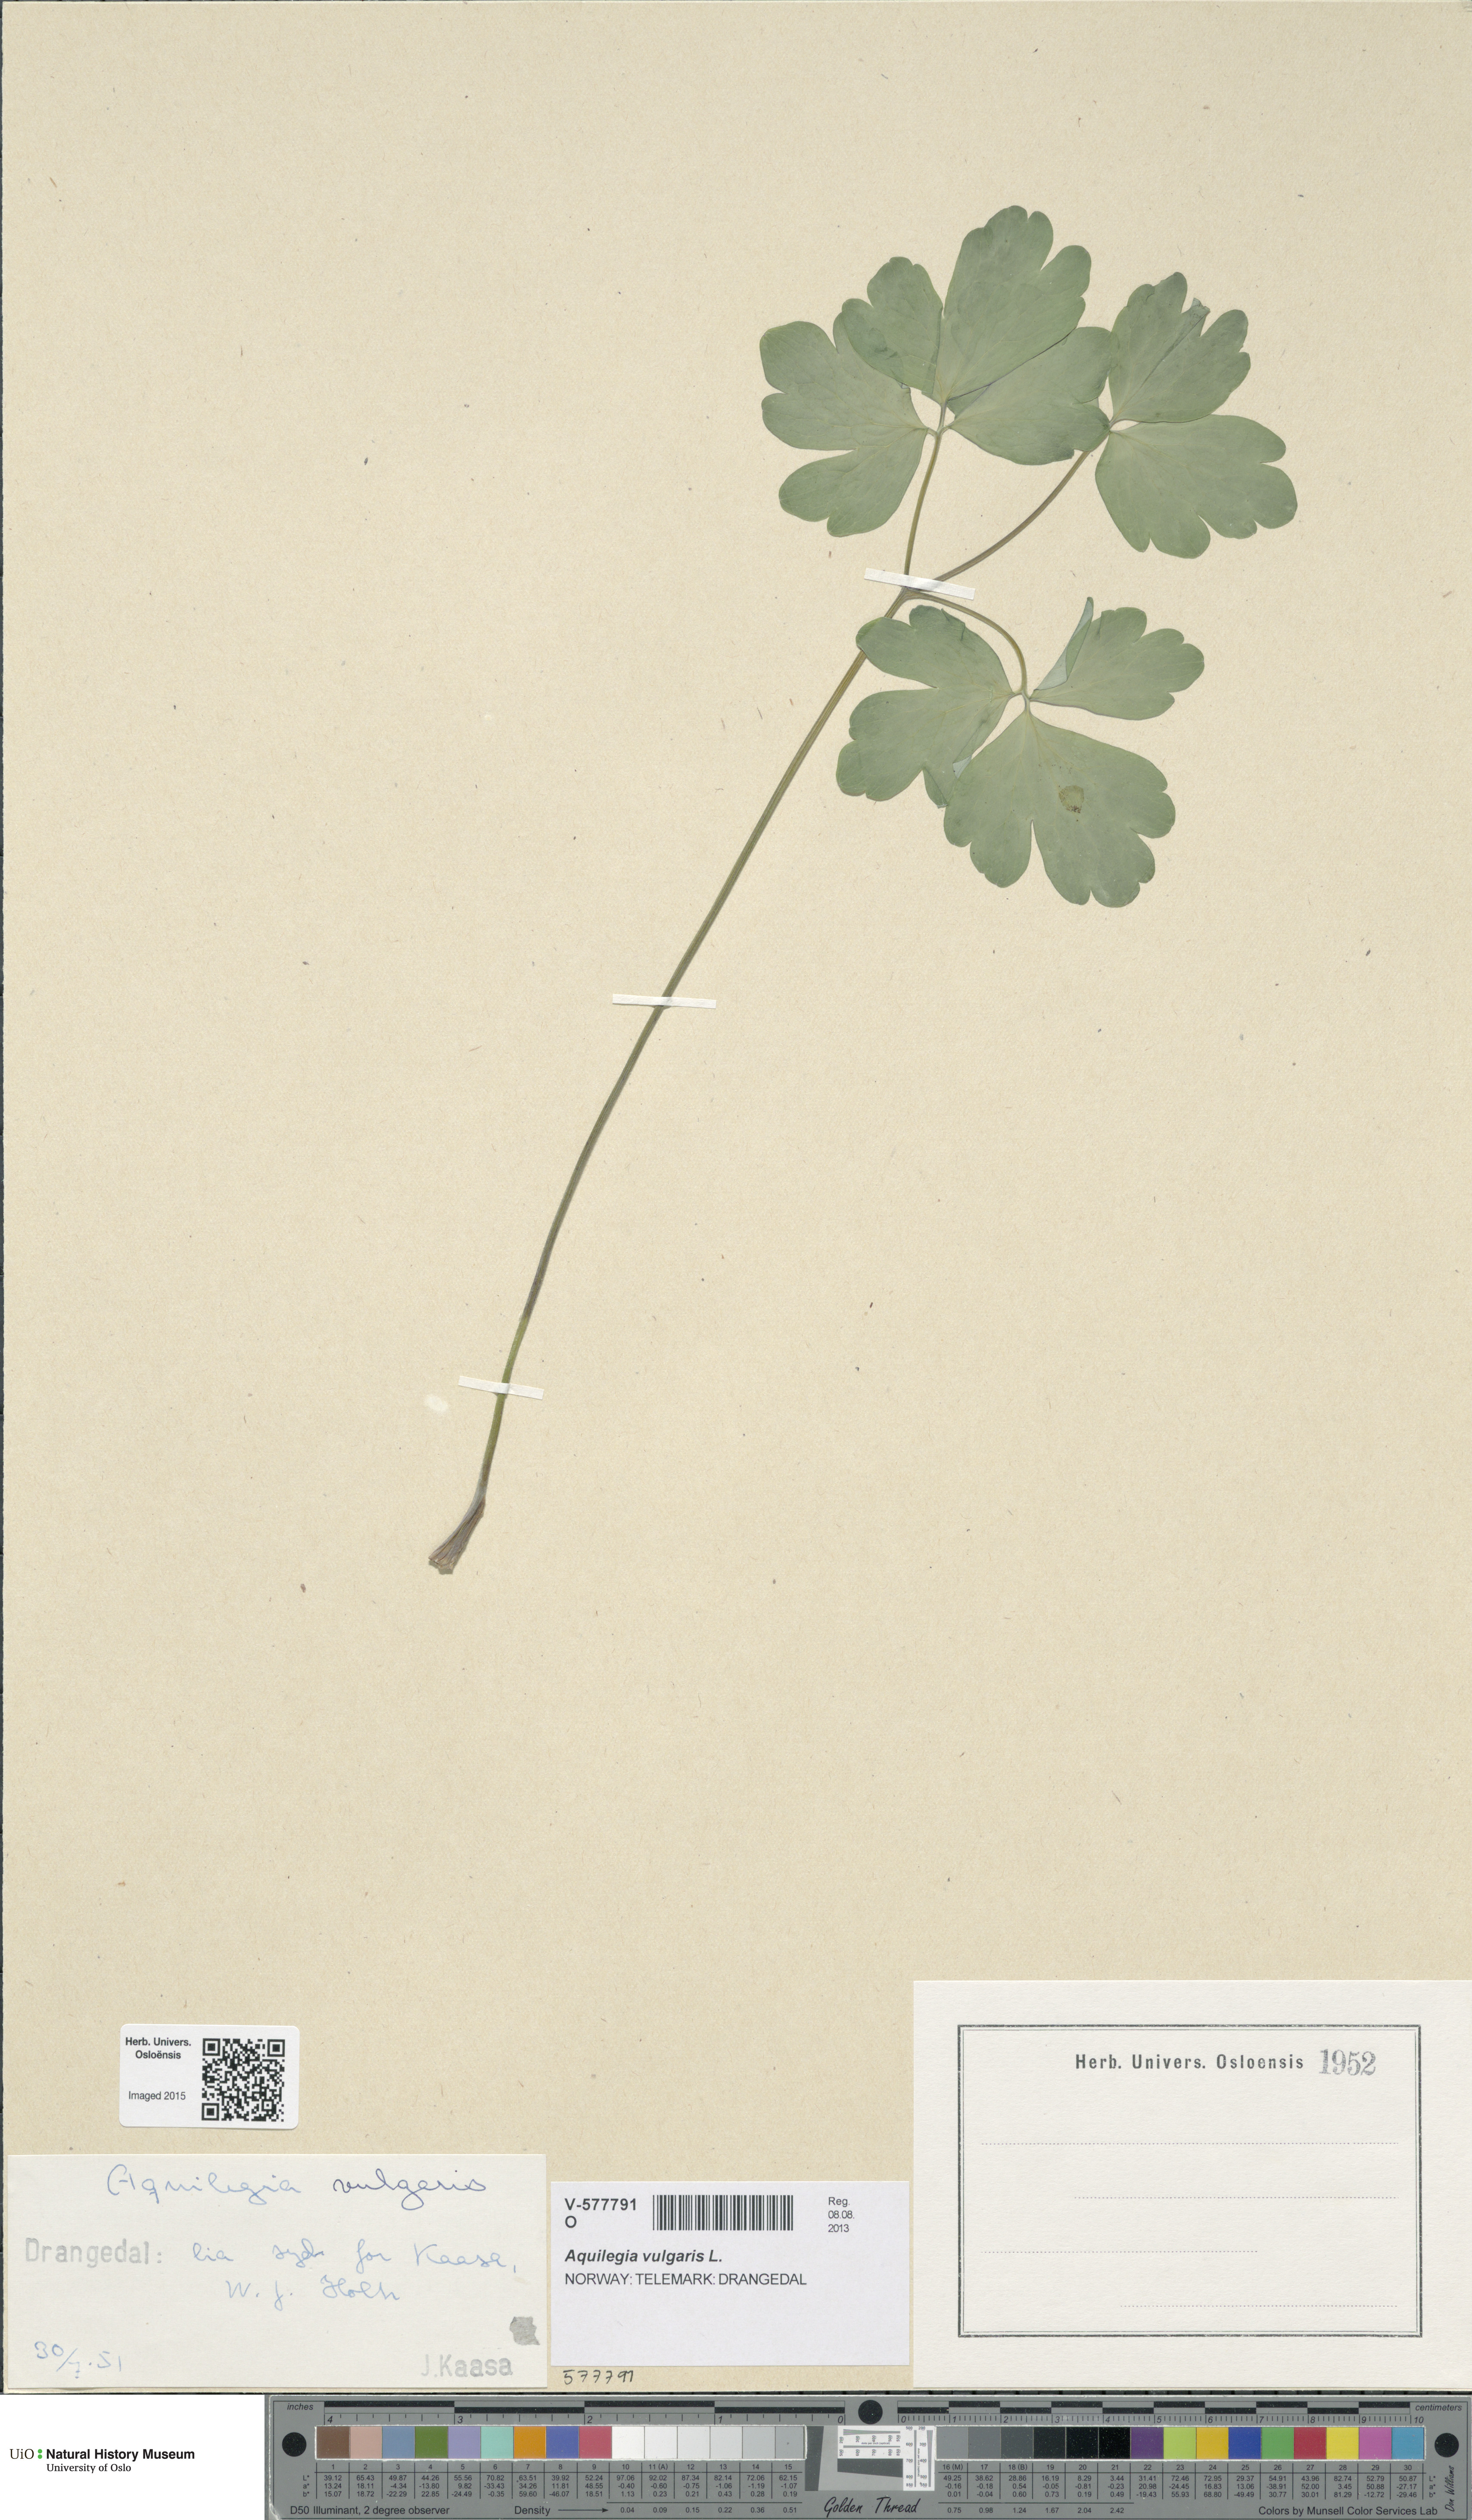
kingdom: Plantae
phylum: Tracheophyta
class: Magnoliopsida
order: Ranunculales
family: Ranunculaceae
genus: Aquilegia
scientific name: Aquilegia vulgaris
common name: Columbine
